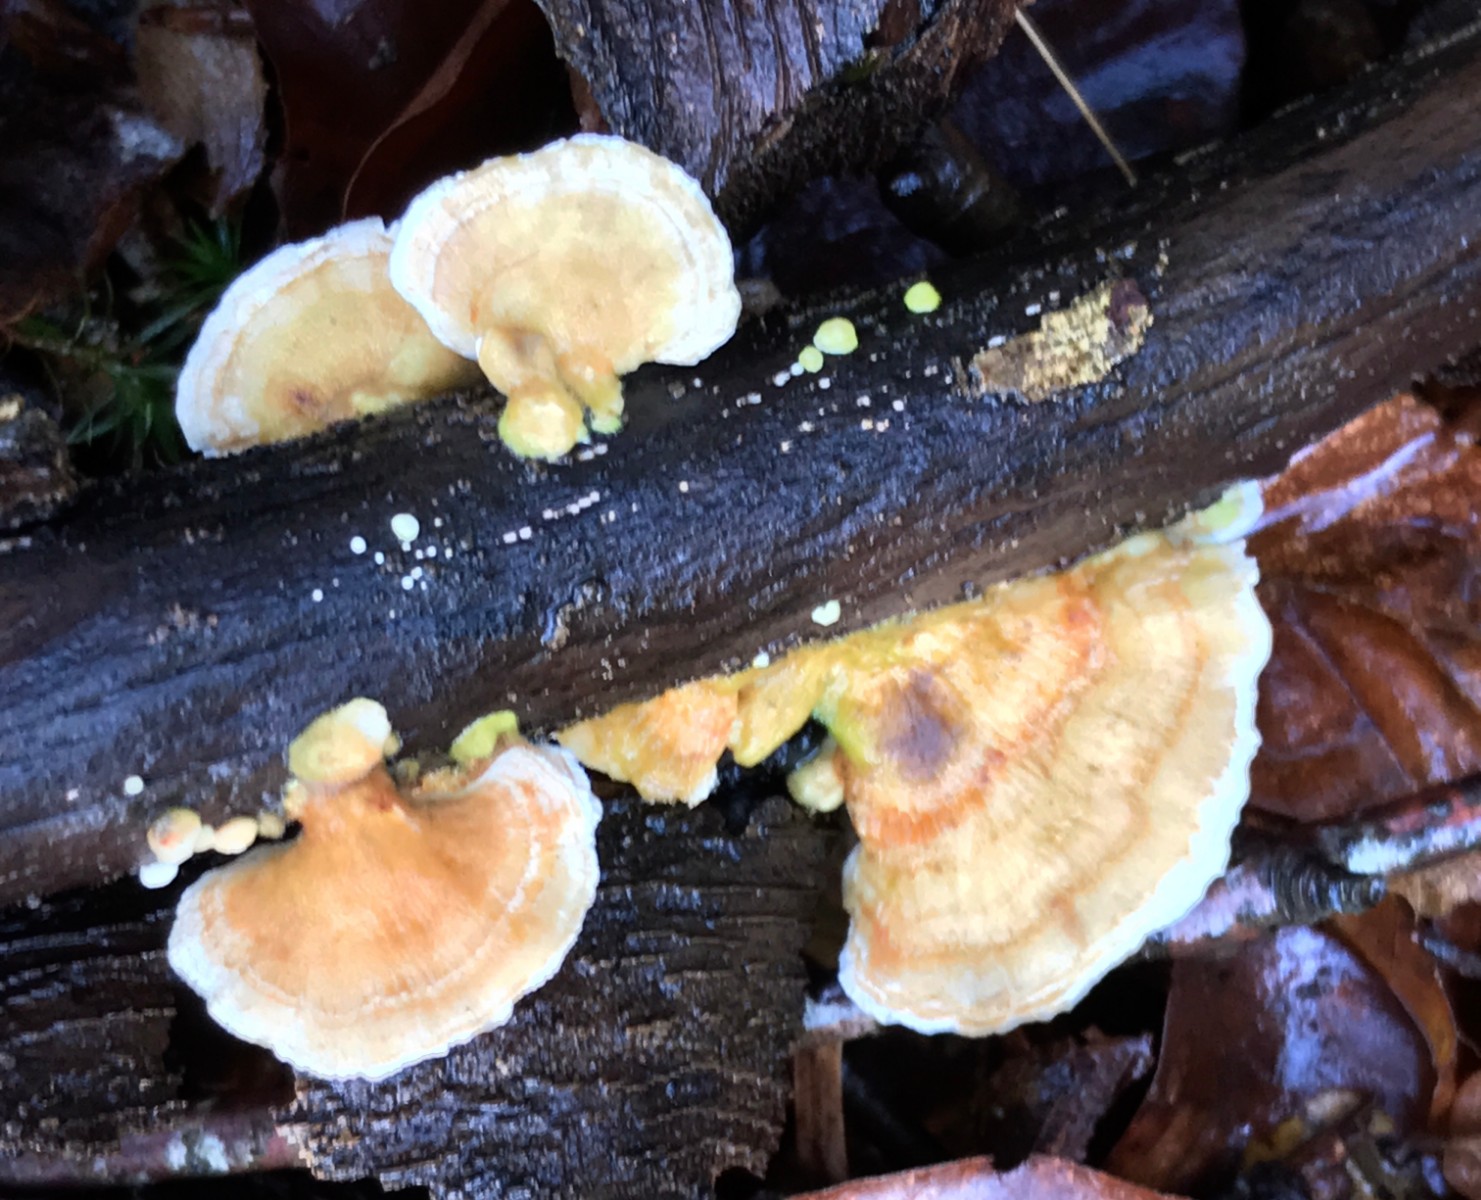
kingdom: Fungi
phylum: Basidiomycota
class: Agaricomycetes
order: Polyporales
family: Polyporaceae
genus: Trametes
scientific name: Trametes ochracea
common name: bæltet læderporesvamp
